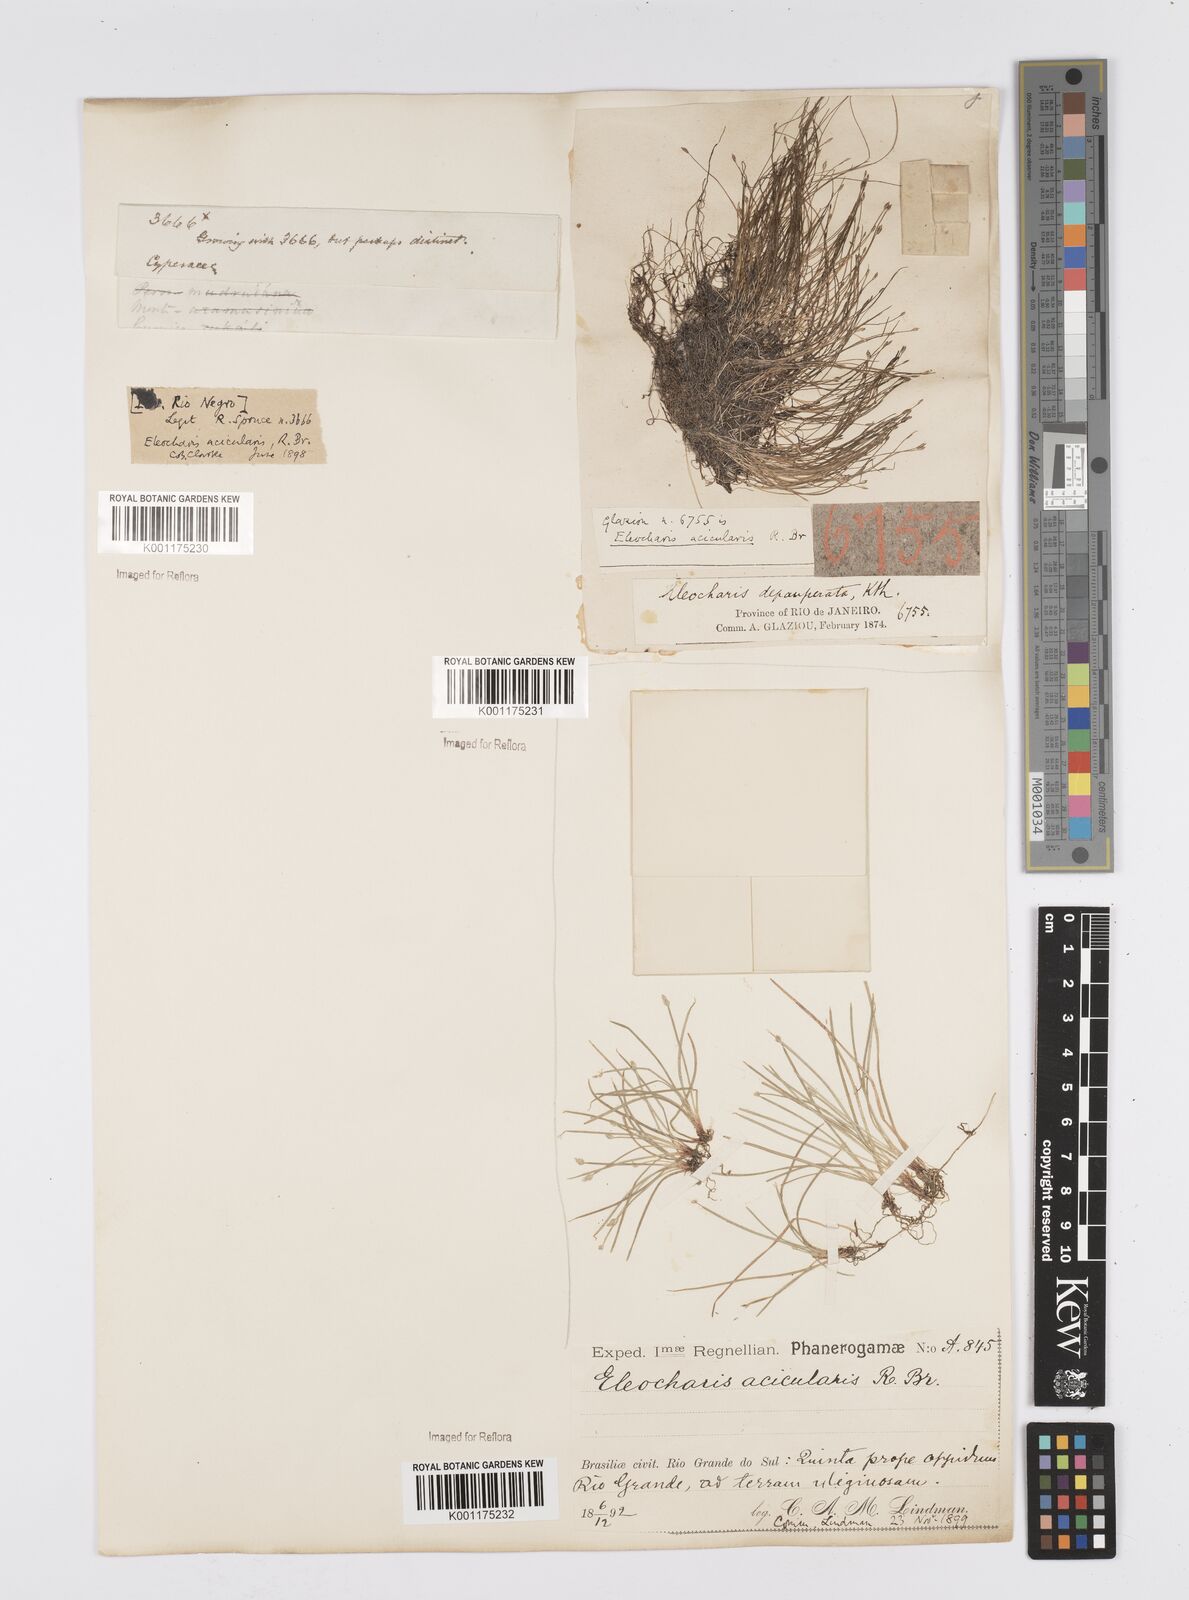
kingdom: Plantae
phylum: Tracheophyta
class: Liliopsida
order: Poales
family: Cyperaceae
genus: Eleocharis
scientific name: Eleocharis acicularis
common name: Needle spike-rush
